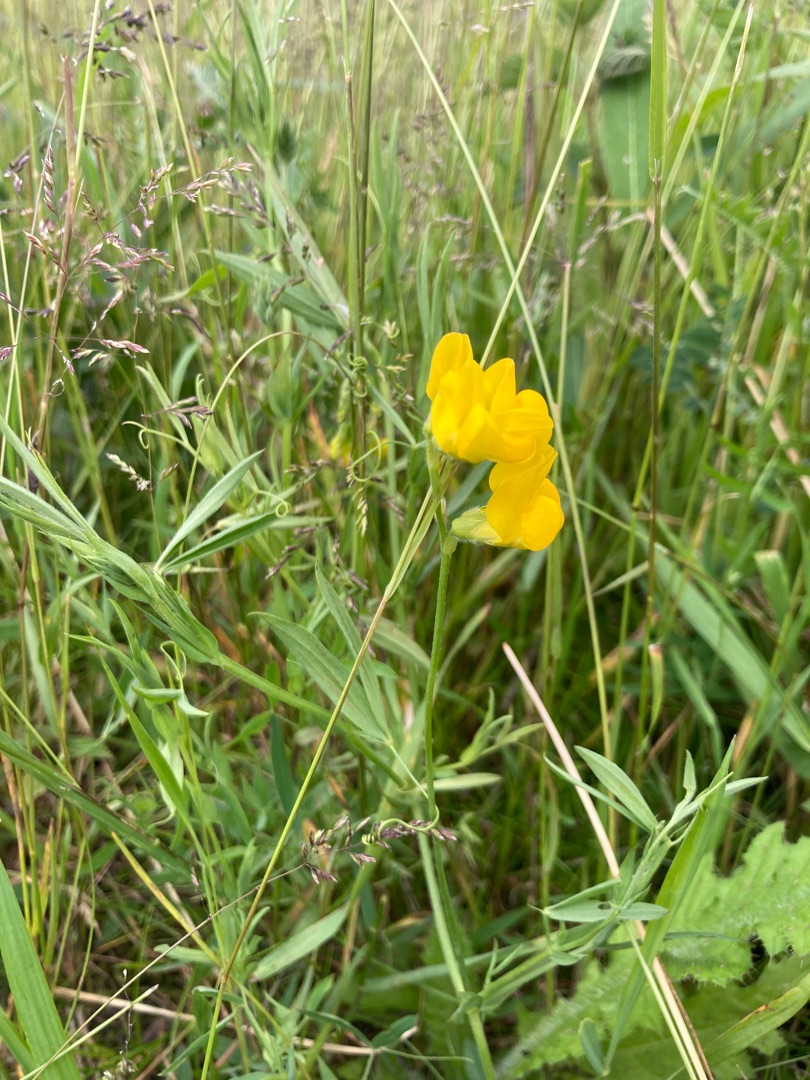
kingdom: Plantae
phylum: Tracheophyta
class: Magnoliopsida
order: Fabales
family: Fabaceae
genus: Lathyrus
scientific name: Lathyrus pratensis
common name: Gul fladbælg
